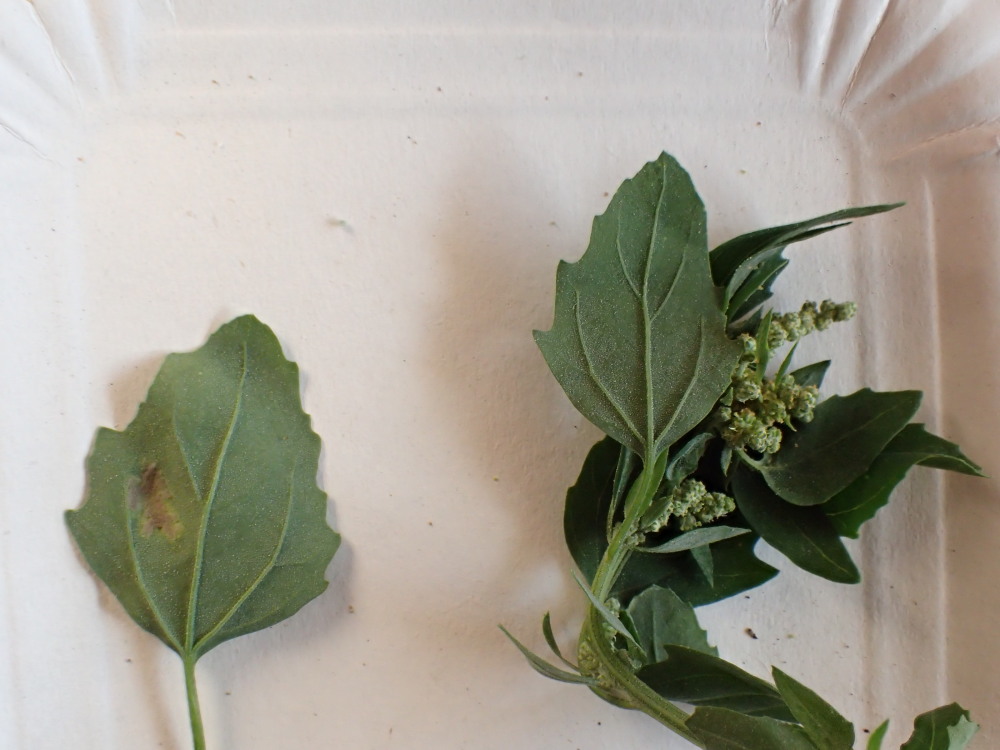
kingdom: Chromista
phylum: Oomycota
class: Peronosporea
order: Peronosporales
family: Peronosporaceae
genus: Peronospora
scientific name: Peronospora farinosa
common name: Beet downy mildew
